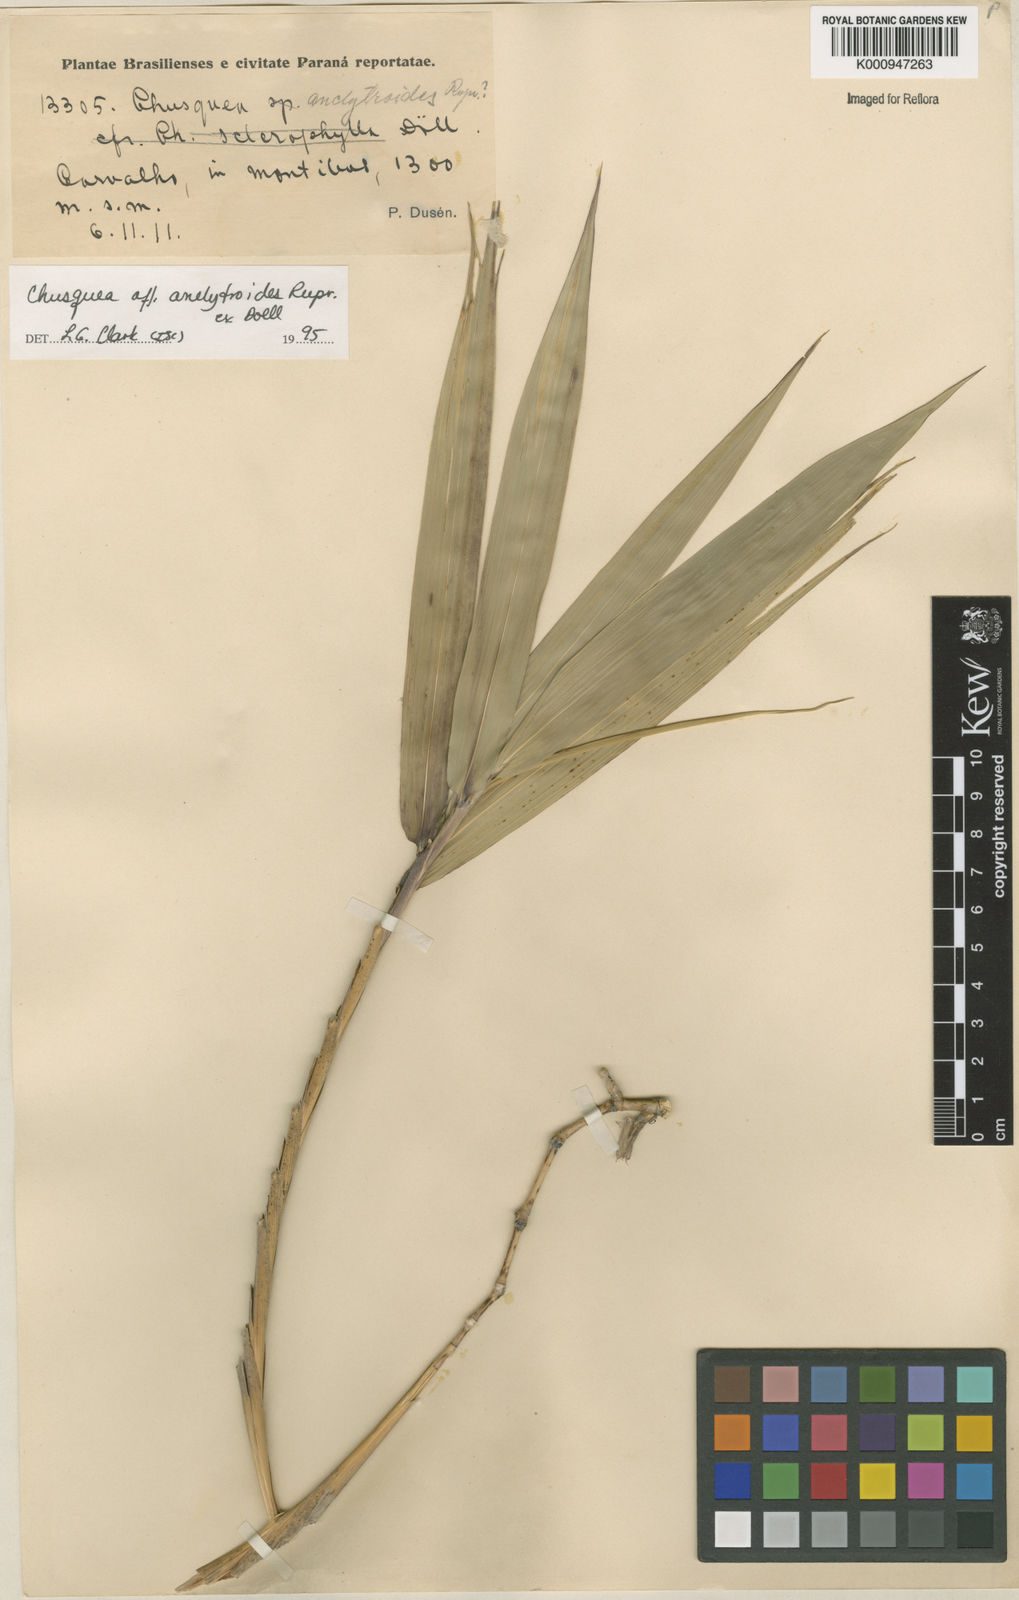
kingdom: Plantae
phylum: Tracheophyta
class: Liliopsida
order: Poales
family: Poaceae
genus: Chusquea
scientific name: Chusquea
